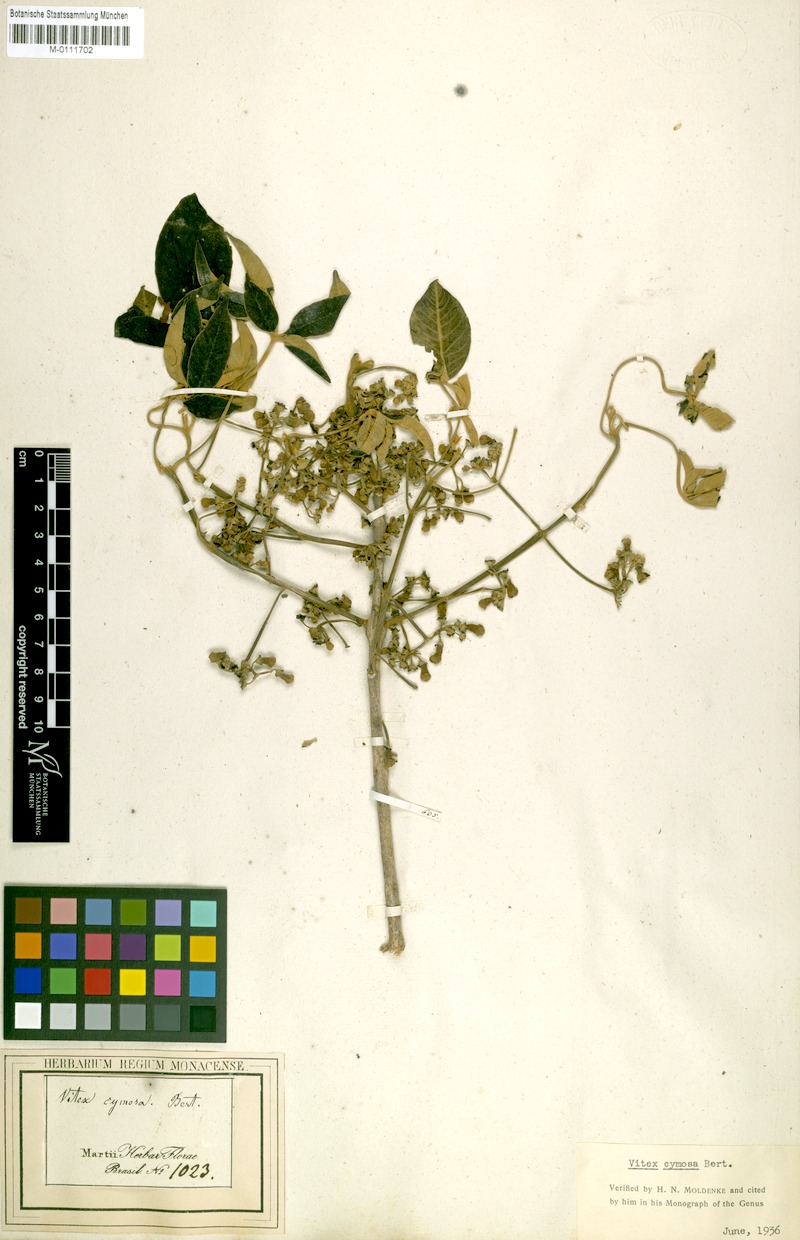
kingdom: Plantae
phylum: Tracheophyta
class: Magnoliopsida
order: Lamiales
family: Lamiaceae
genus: Vitex
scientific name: Vitex cymosa
